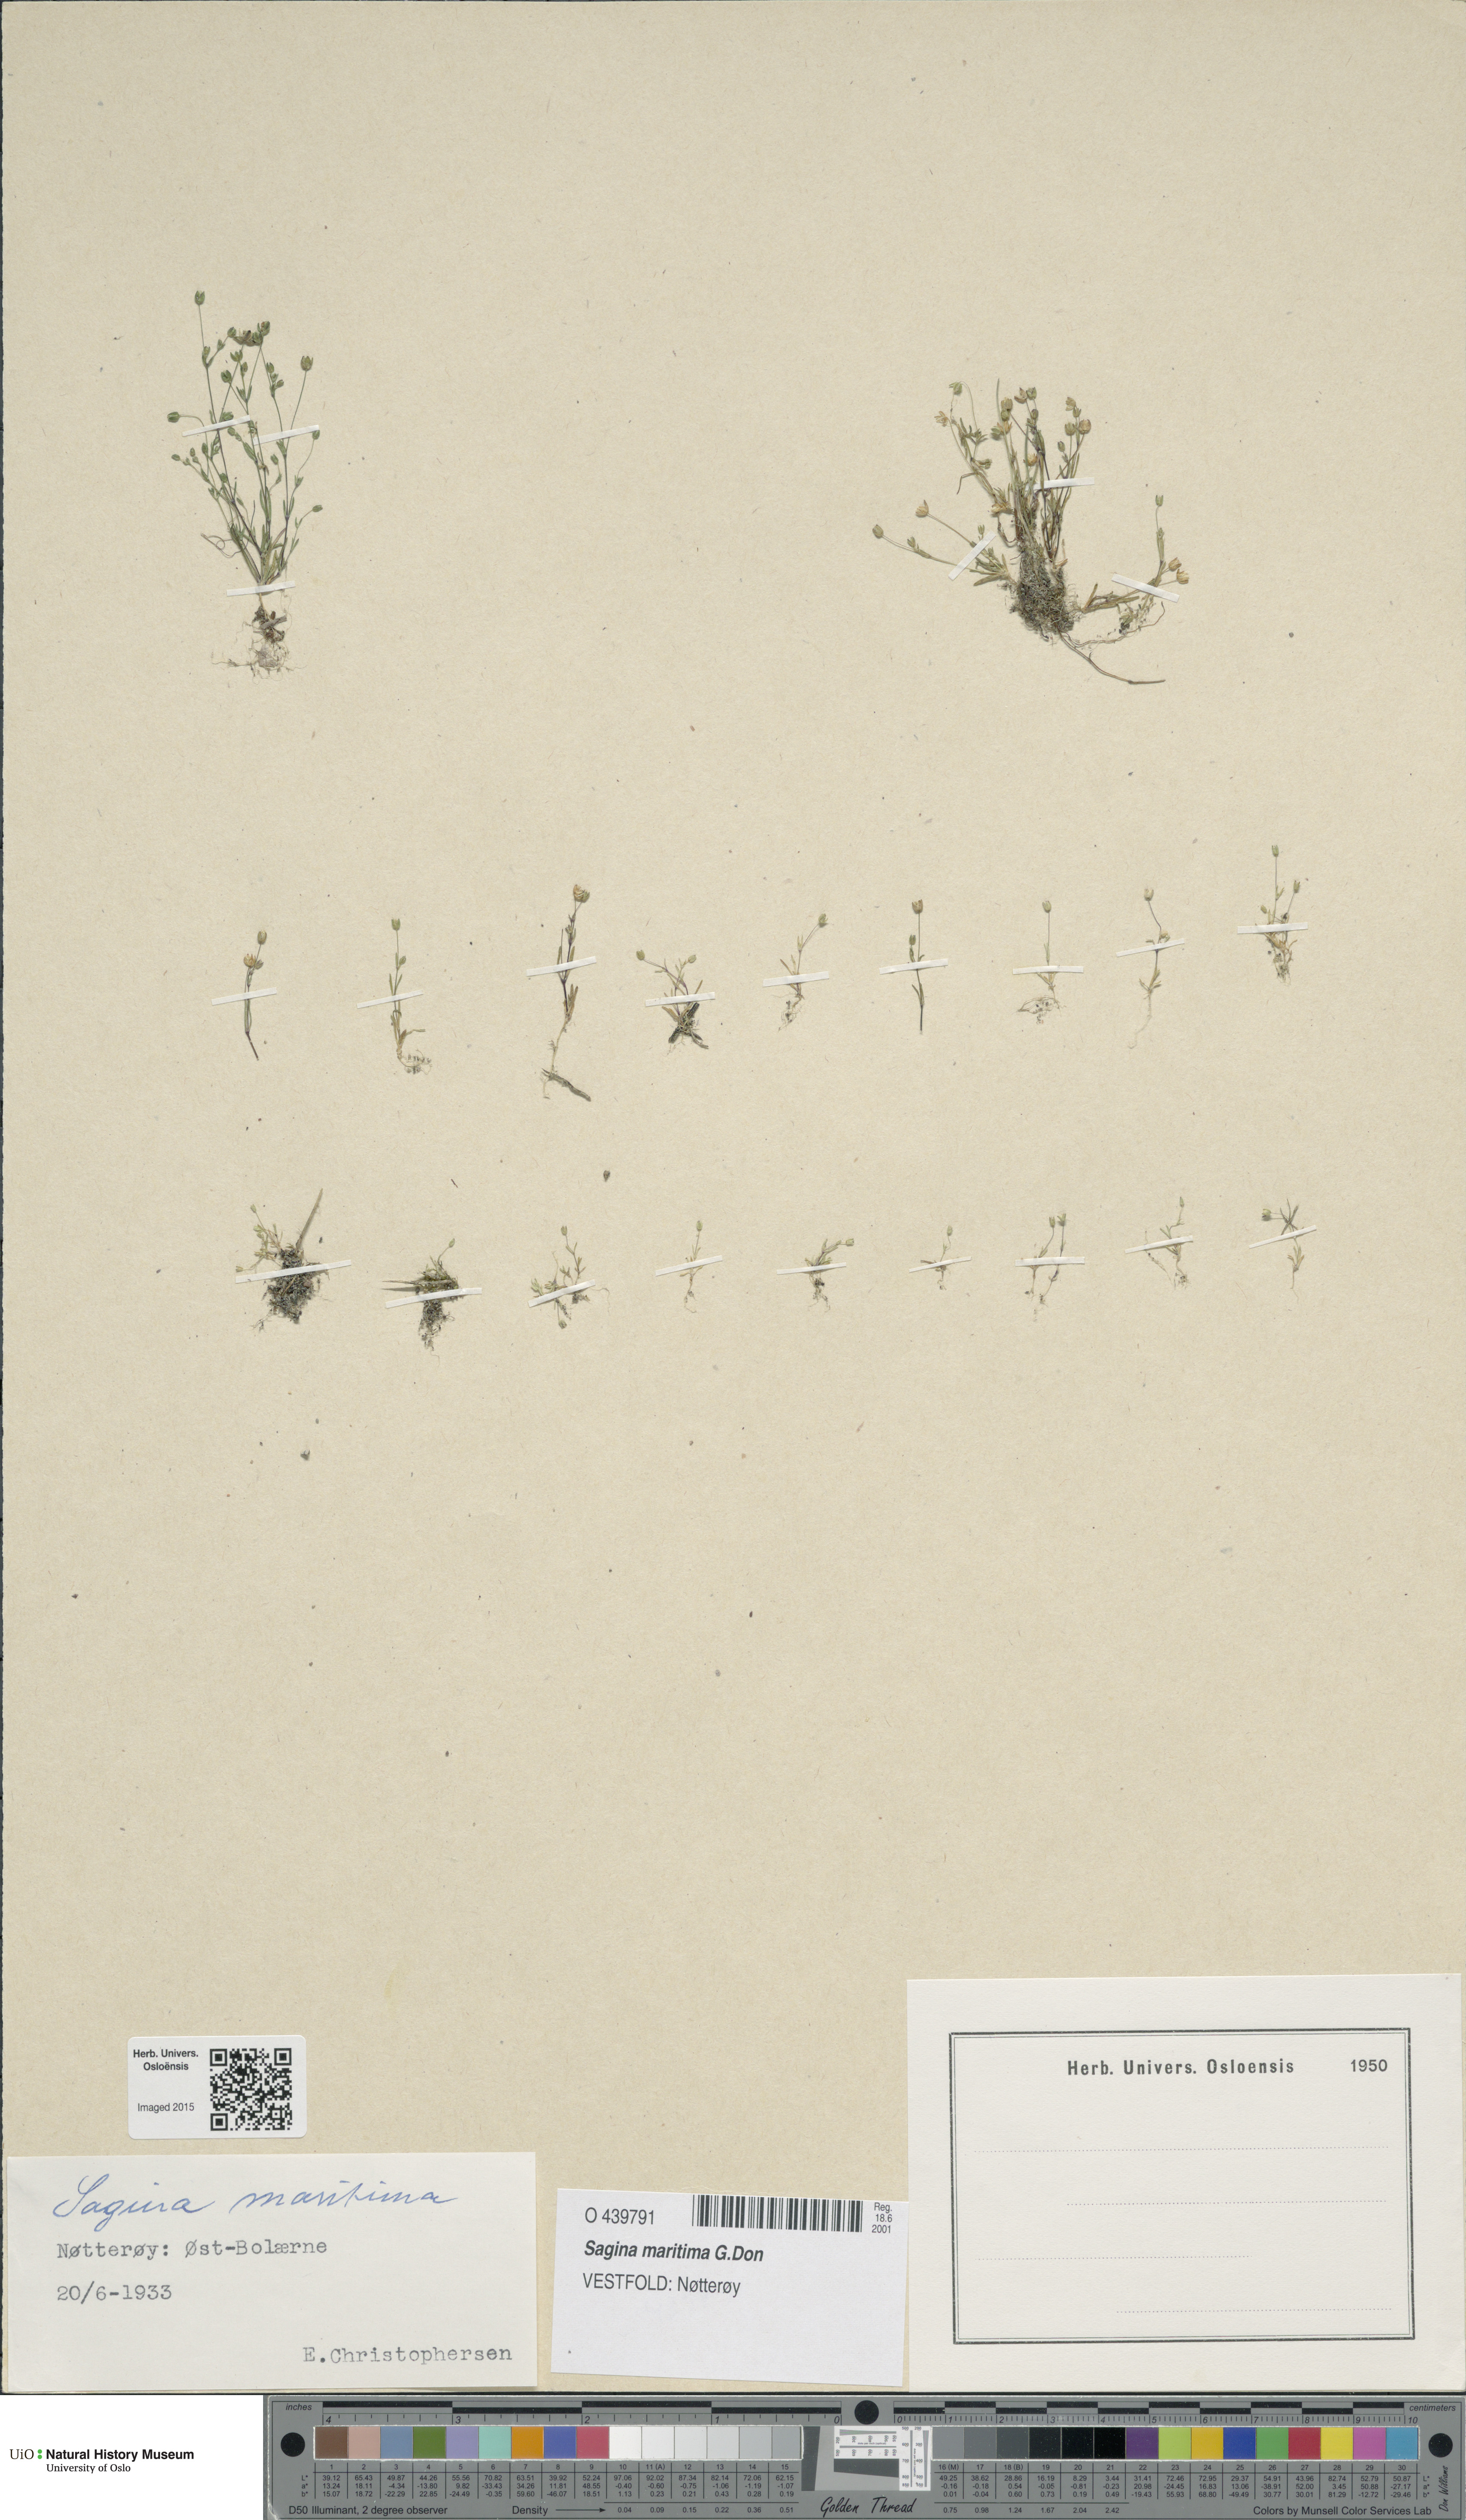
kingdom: Plantae
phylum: Tracheophyta
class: Magnoliopsida
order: Caryophyllales
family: Caryophyllaceae
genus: Sagina
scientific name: Sagina maritima
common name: Sea pearlwort
